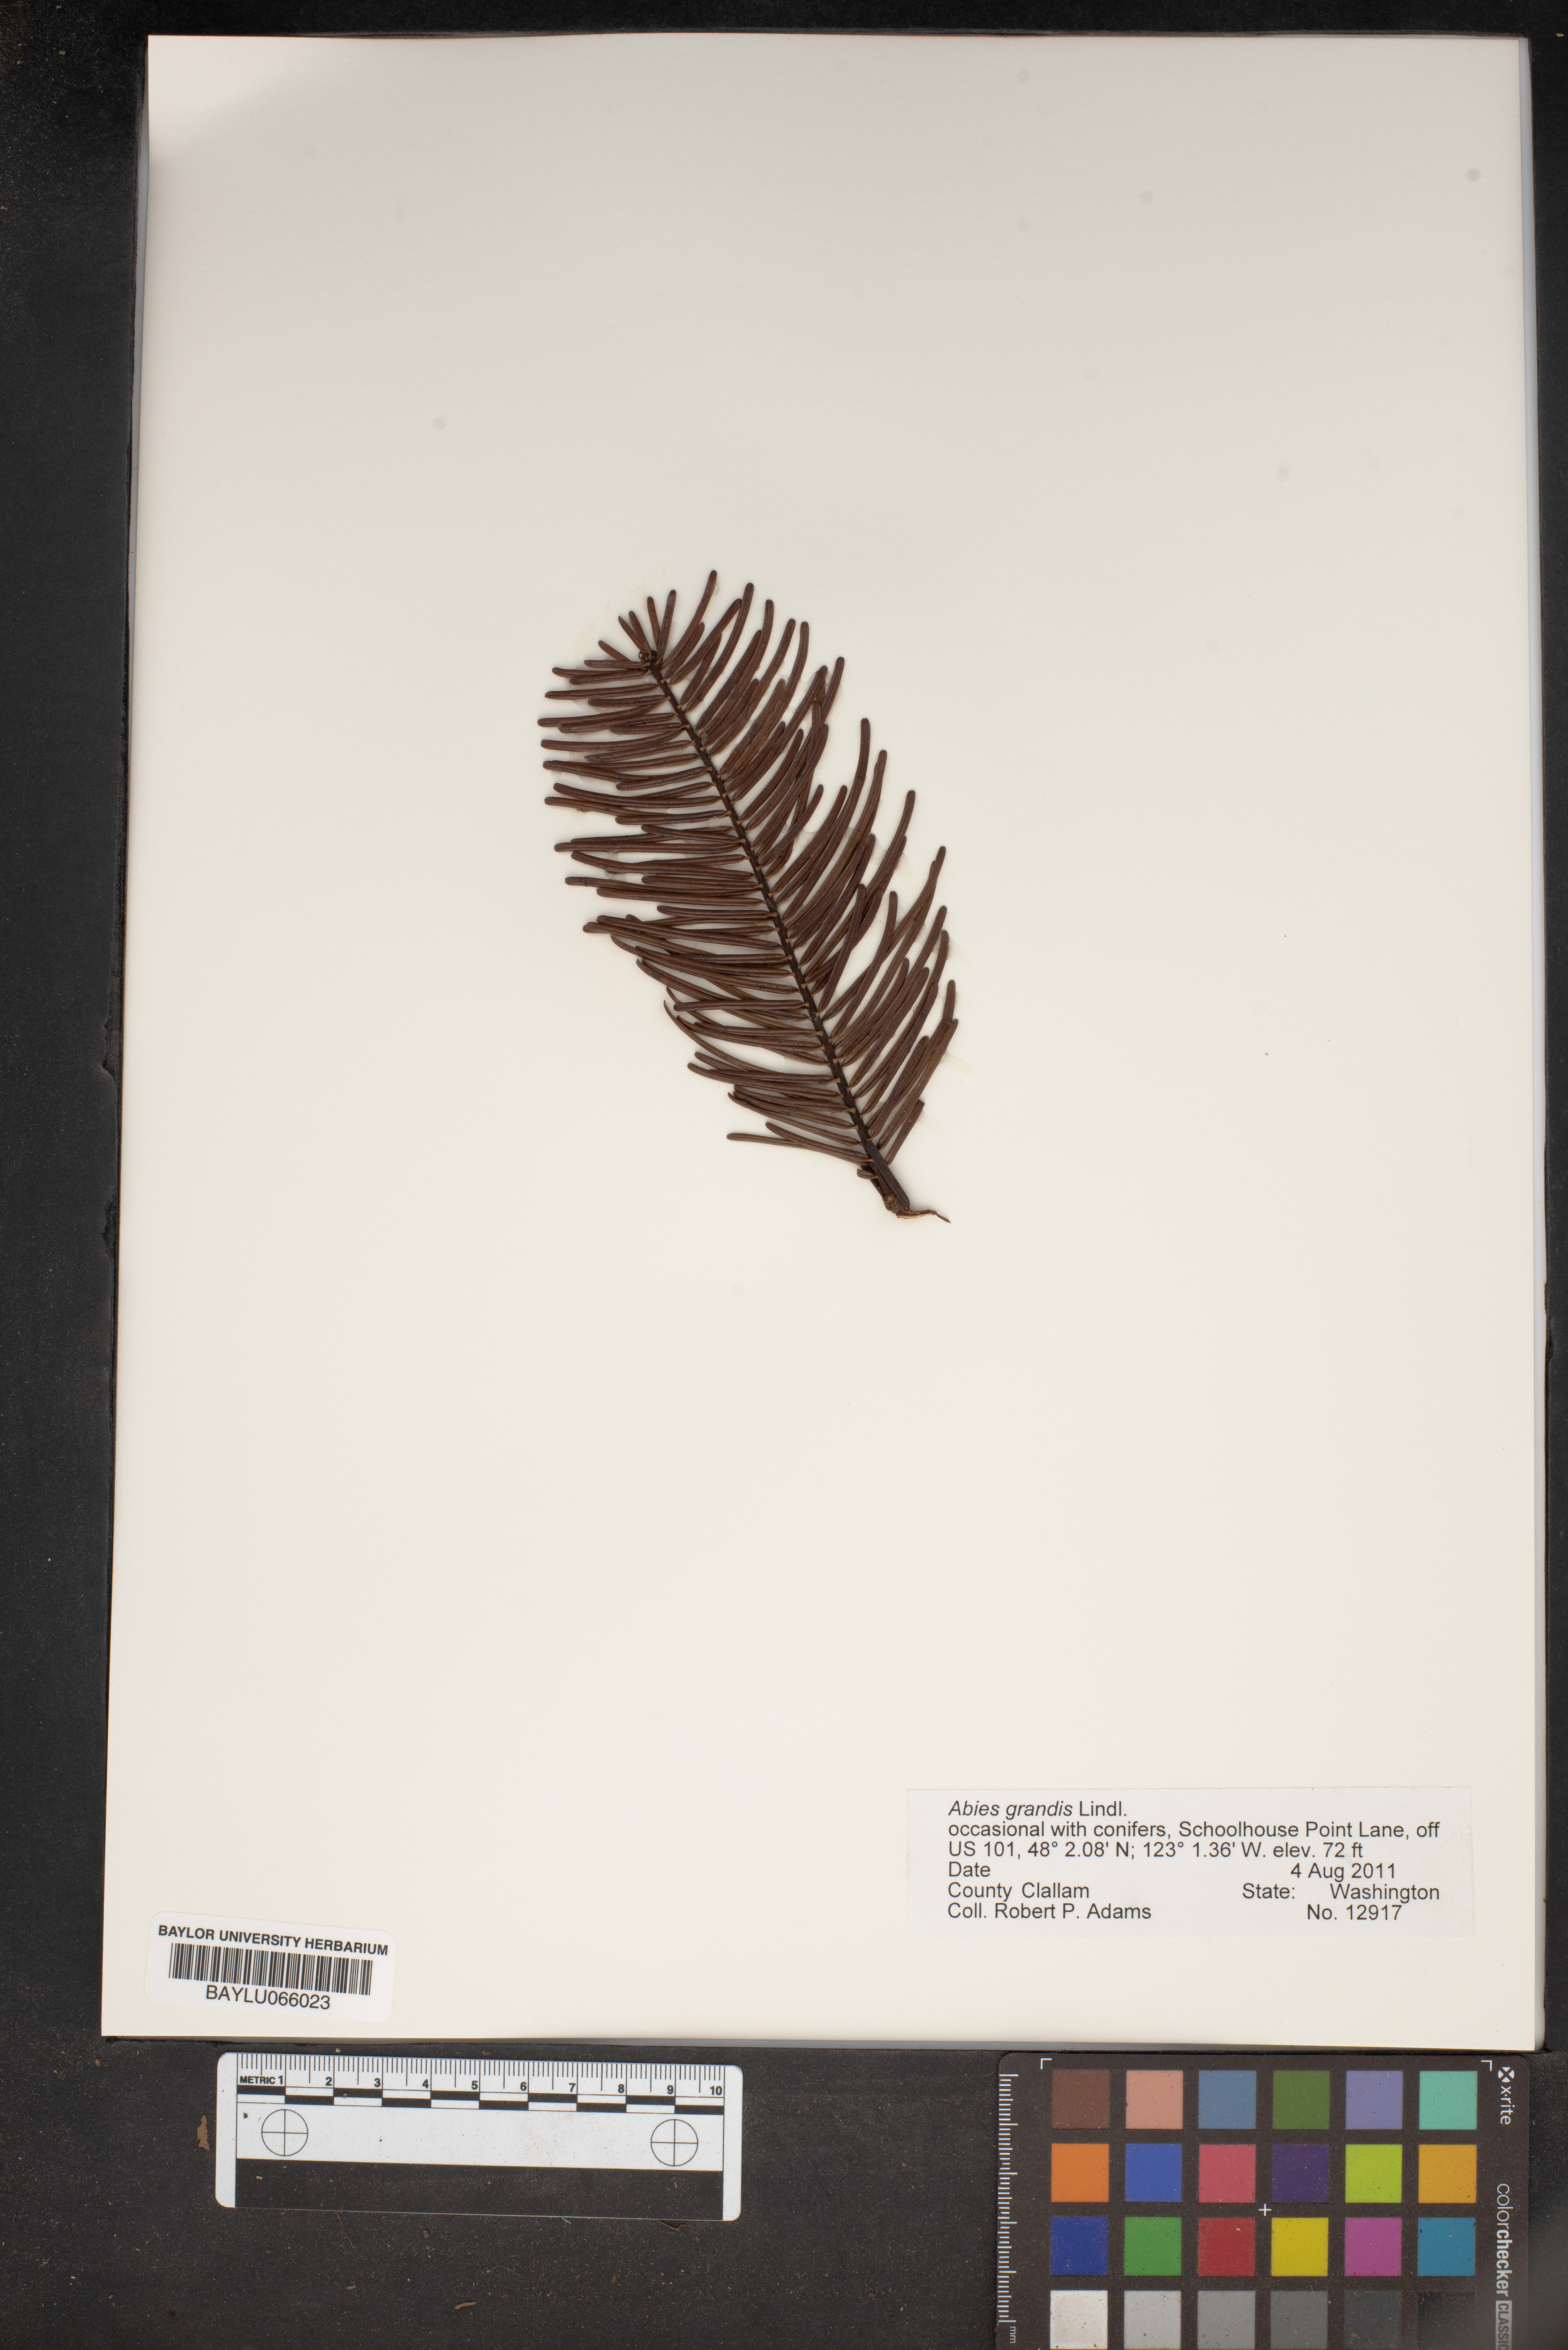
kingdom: Plantae
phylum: Tracheophyta
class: Pinopsida
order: Pinales
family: Pinaceae
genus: Abies
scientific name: Abies grandis
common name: Giant fir
